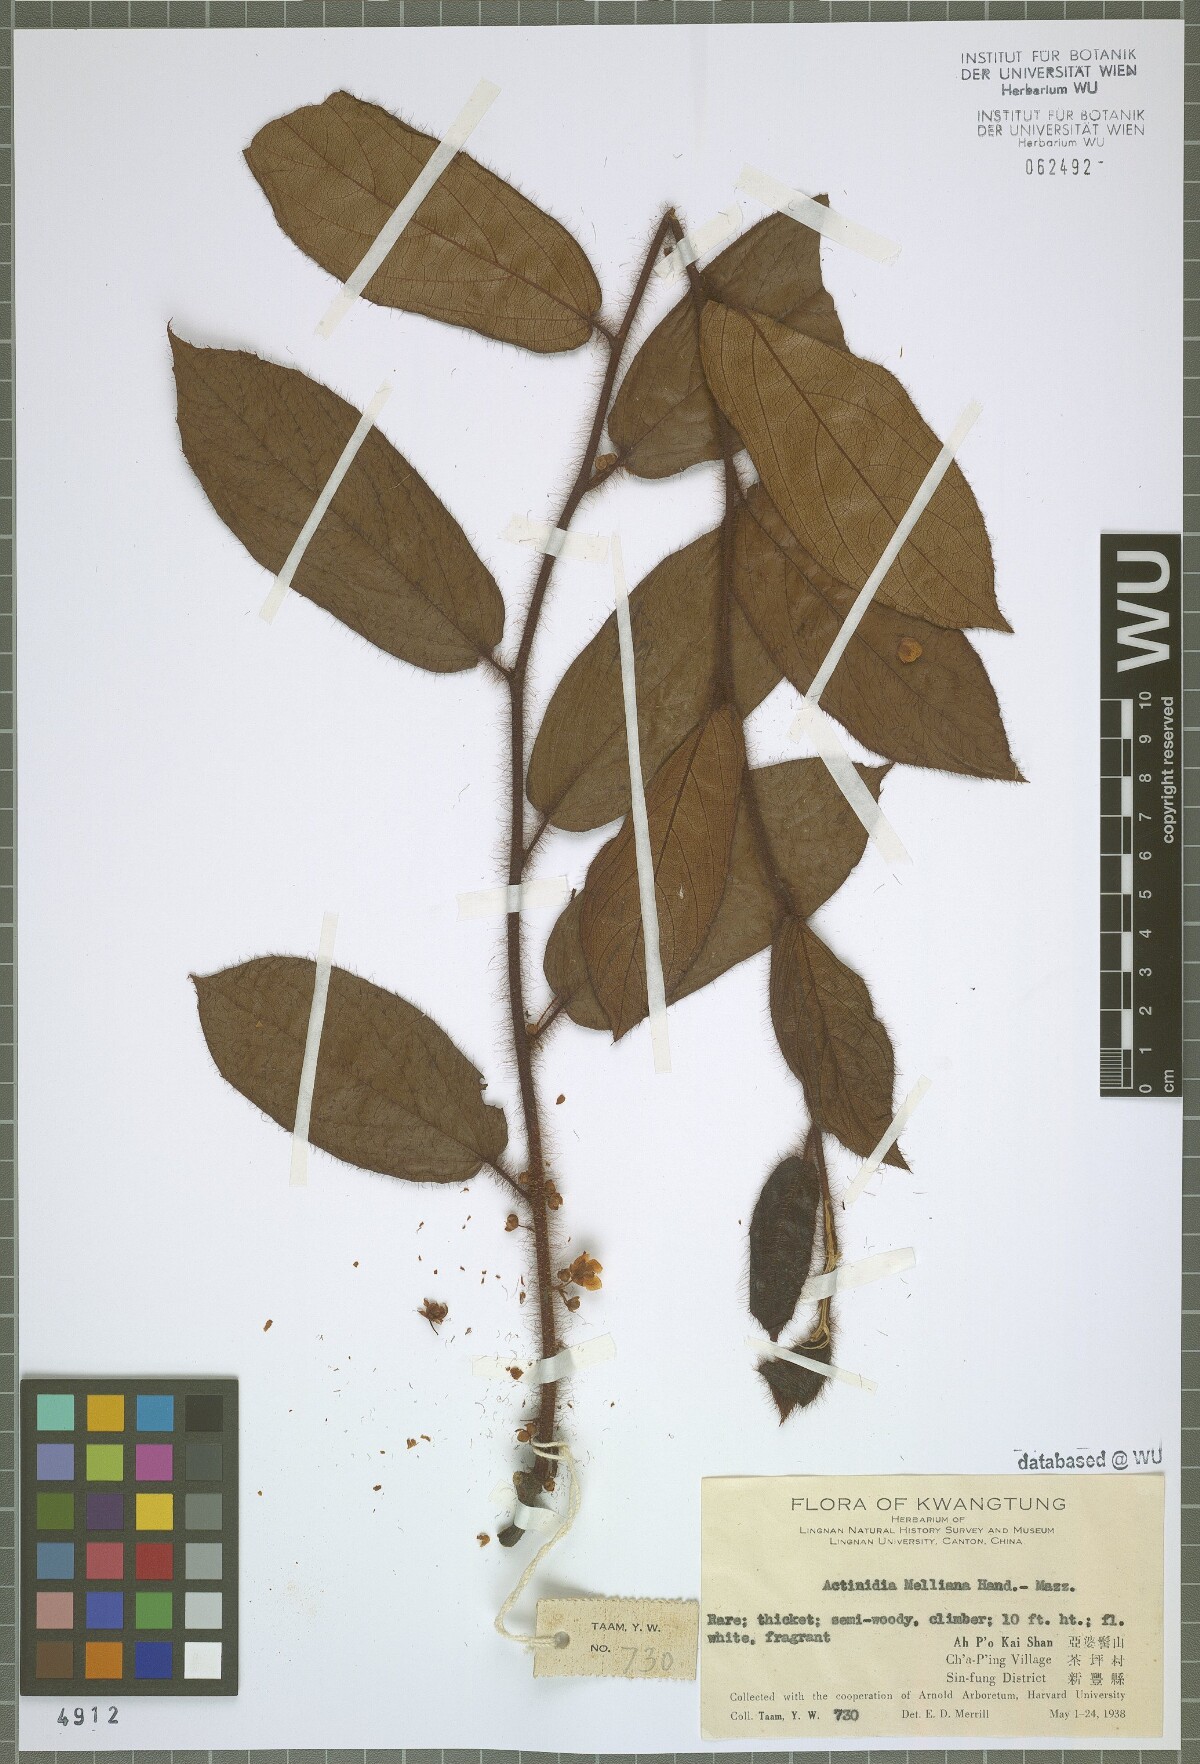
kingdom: Plantae
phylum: Tracheophyta
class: Magnoliopsida
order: Ericales
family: Actinidiaceae
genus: Actinidia
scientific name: Actinidia melliana
